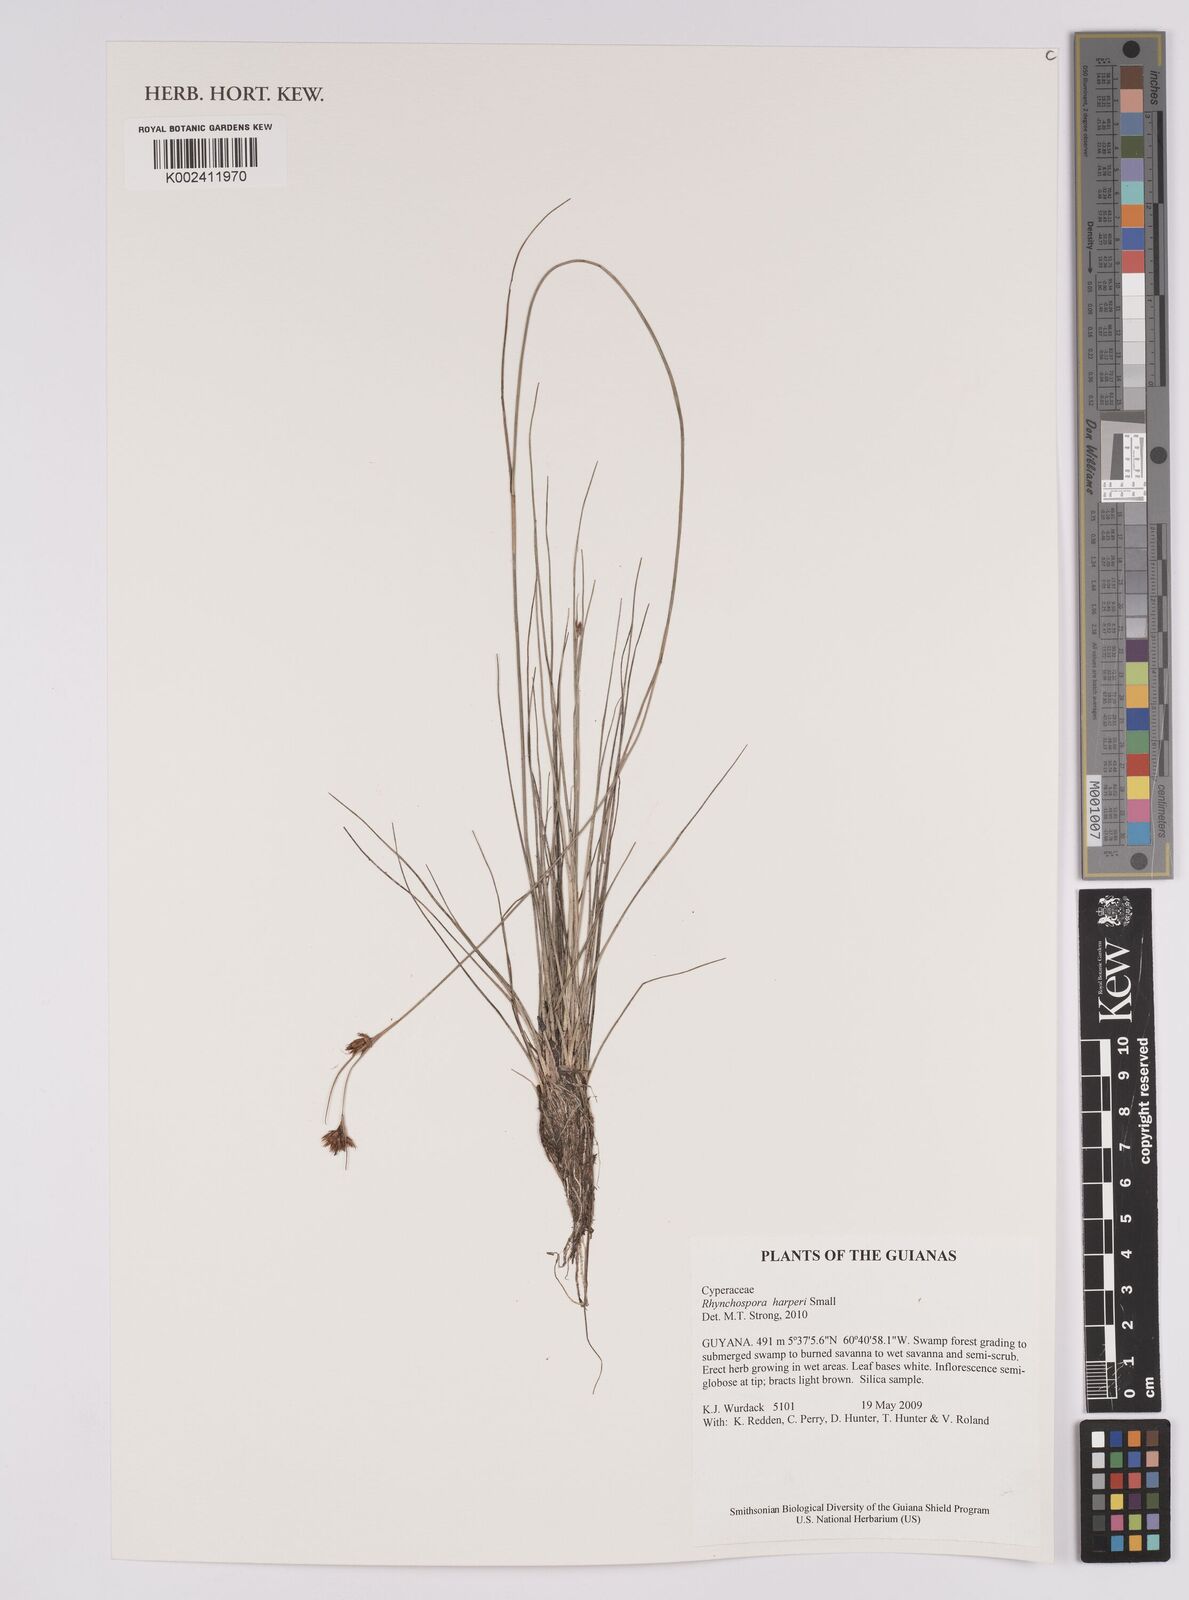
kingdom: Plantae
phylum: Tracheophyta
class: Liliopsida
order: Poales
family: Cyperaceae
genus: Rhynchospora
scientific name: Rhynchospora harperi
